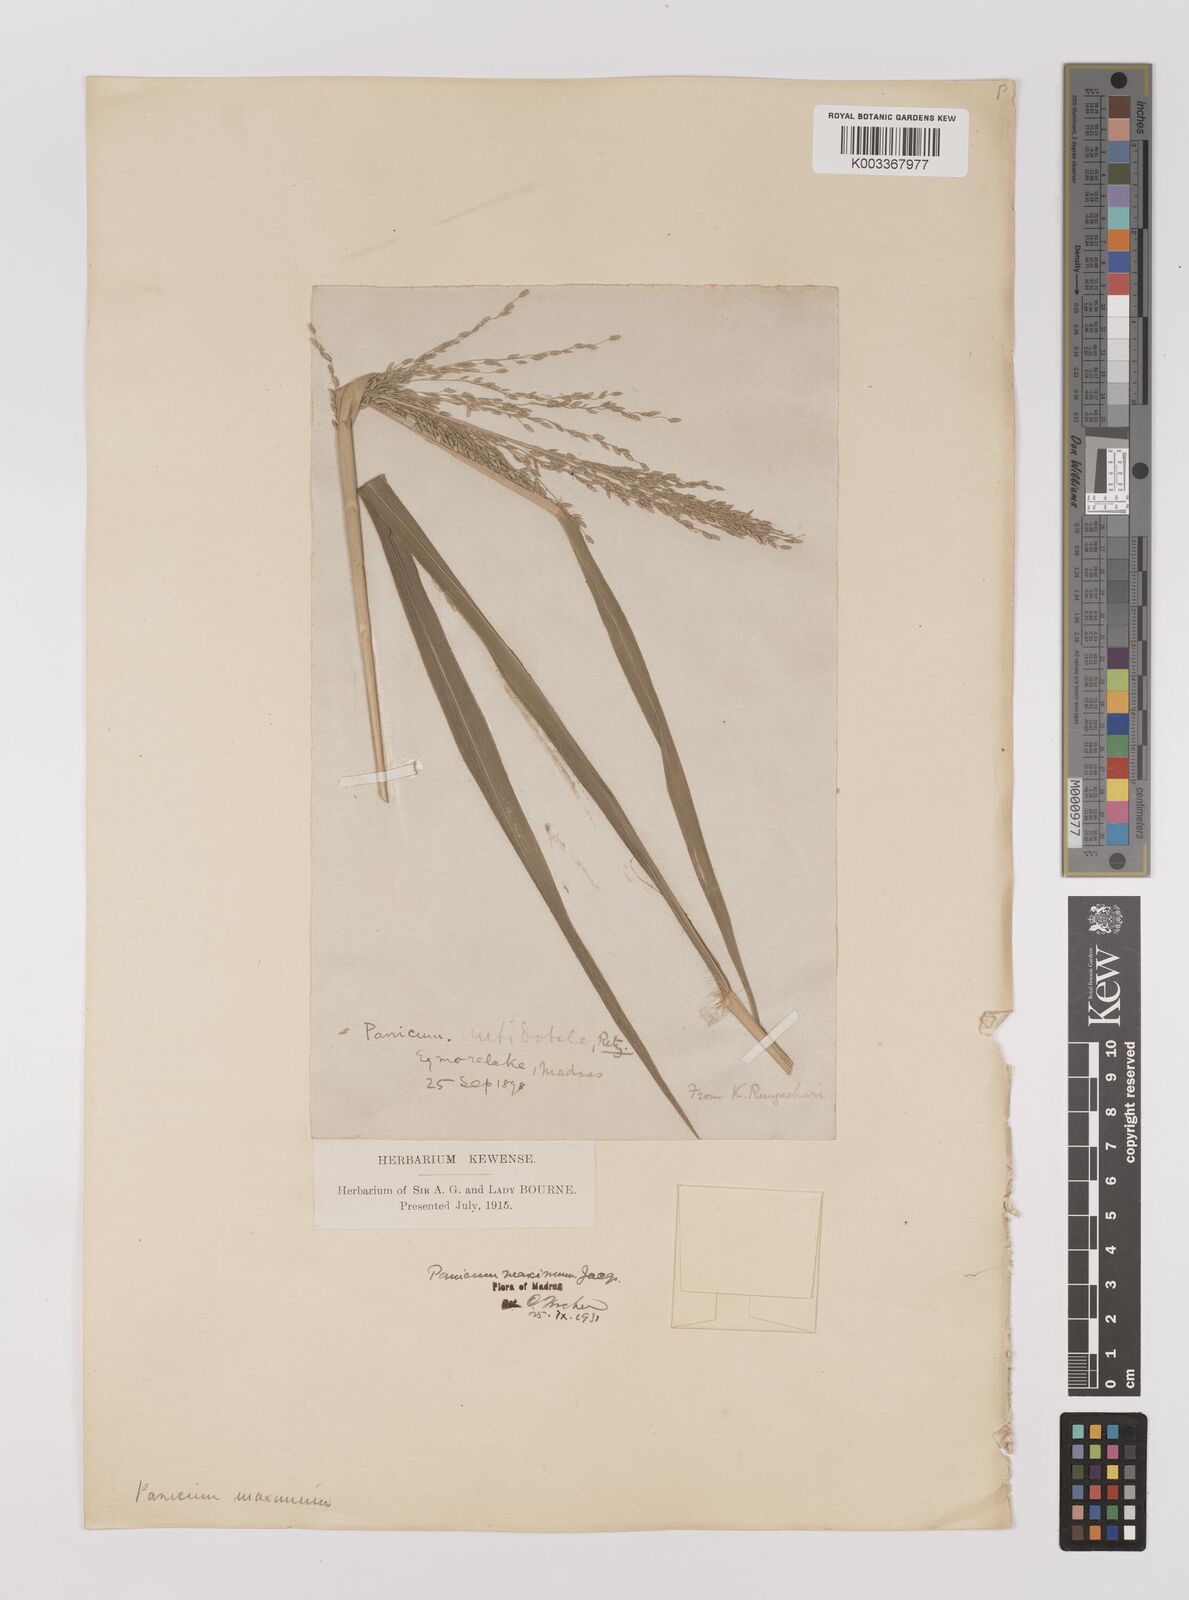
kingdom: Plantae
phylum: Tracheophyta
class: Liliopsida
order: Poales
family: Poaceae
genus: Megathyrsus
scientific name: Megathyrsus maximus
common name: Guineagrass
